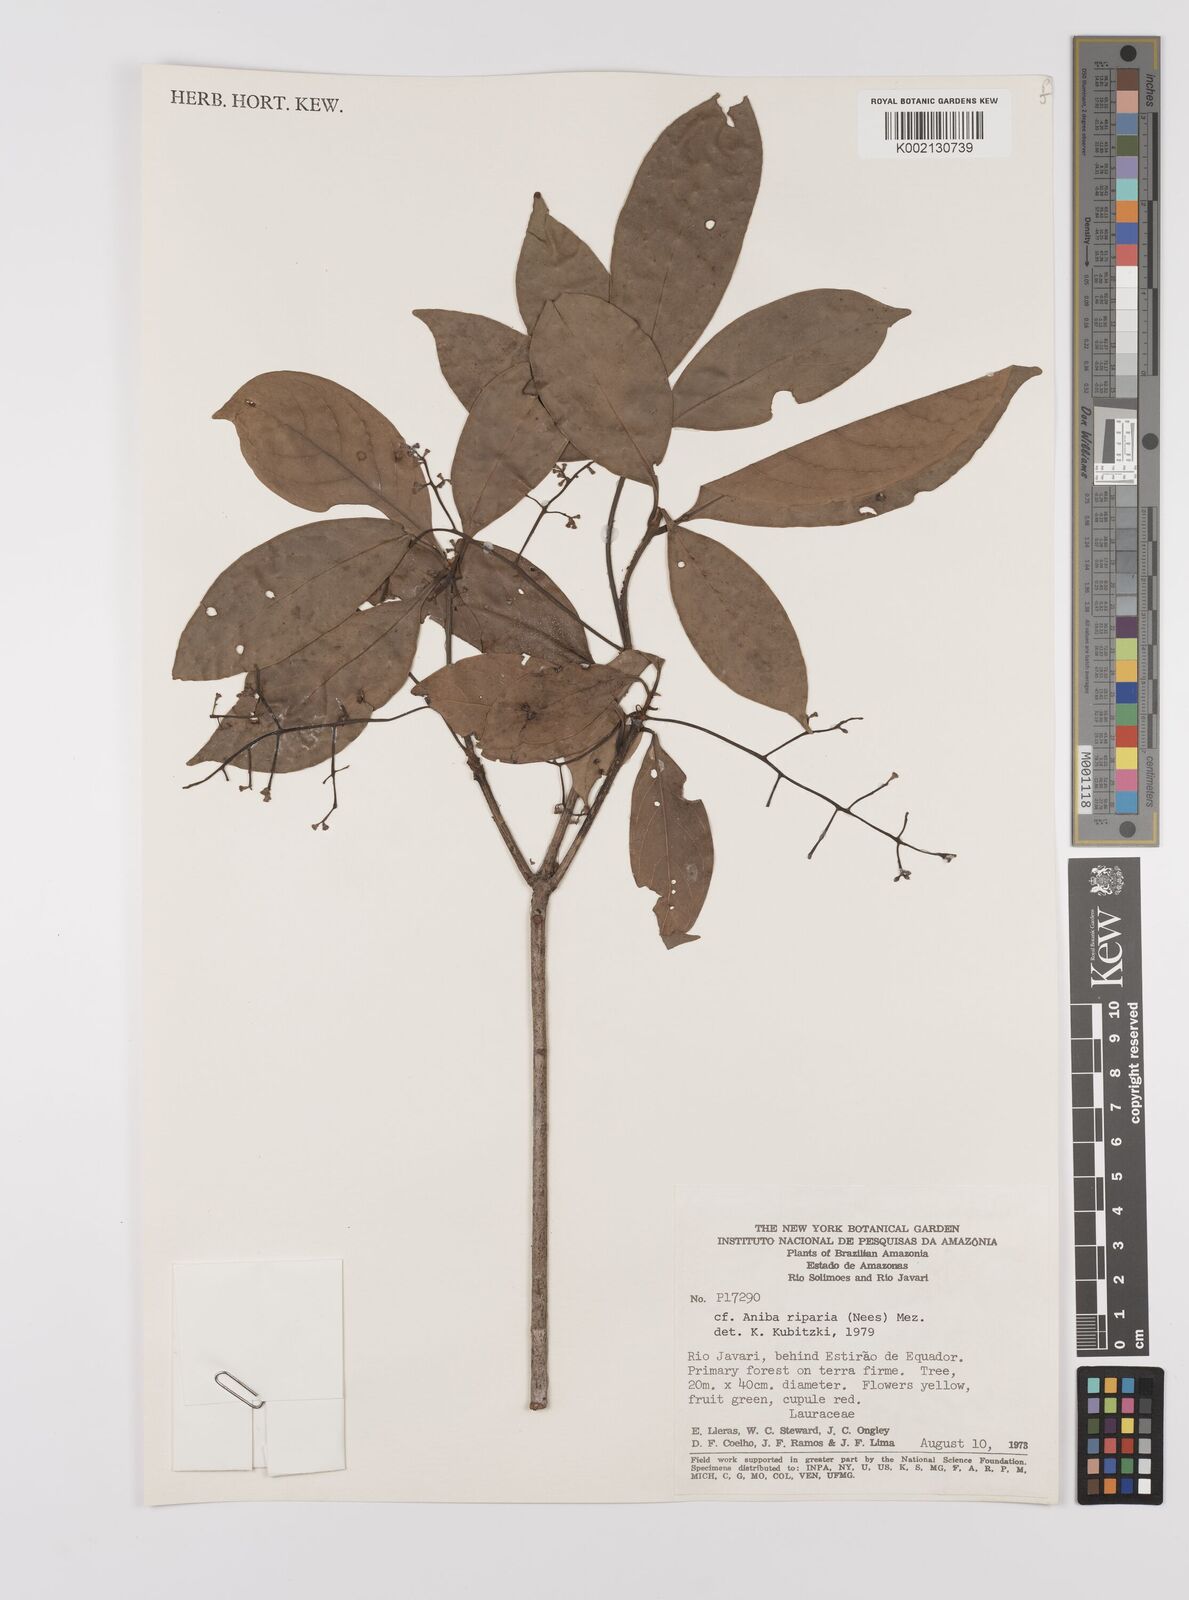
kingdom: Plantae
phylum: Tracheophyta
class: Magnoliopsida
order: Laurales
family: Lauraceae
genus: Aniba
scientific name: Aniba riparia
